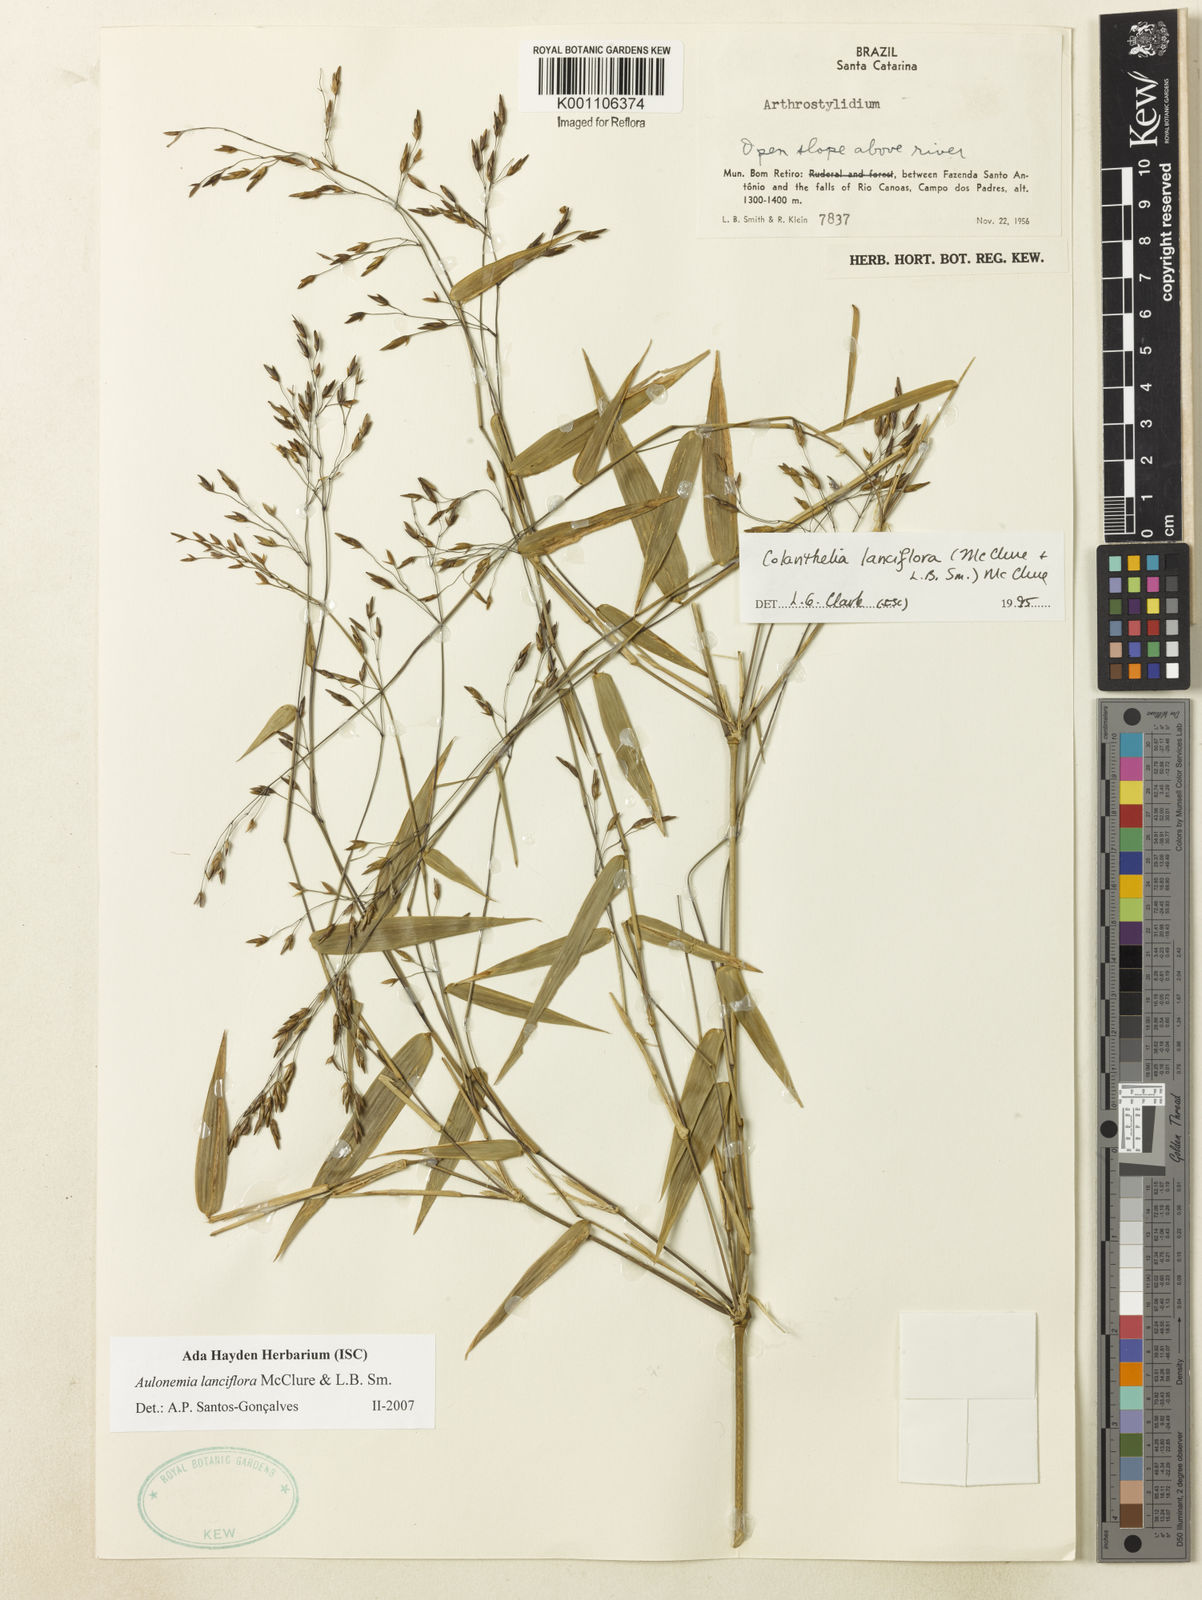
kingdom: Plantae
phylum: Tracheophyta
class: Liliopsida
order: Poales
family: Poaceae
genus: Colanthelia
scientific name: Colanthelia lanciflora
